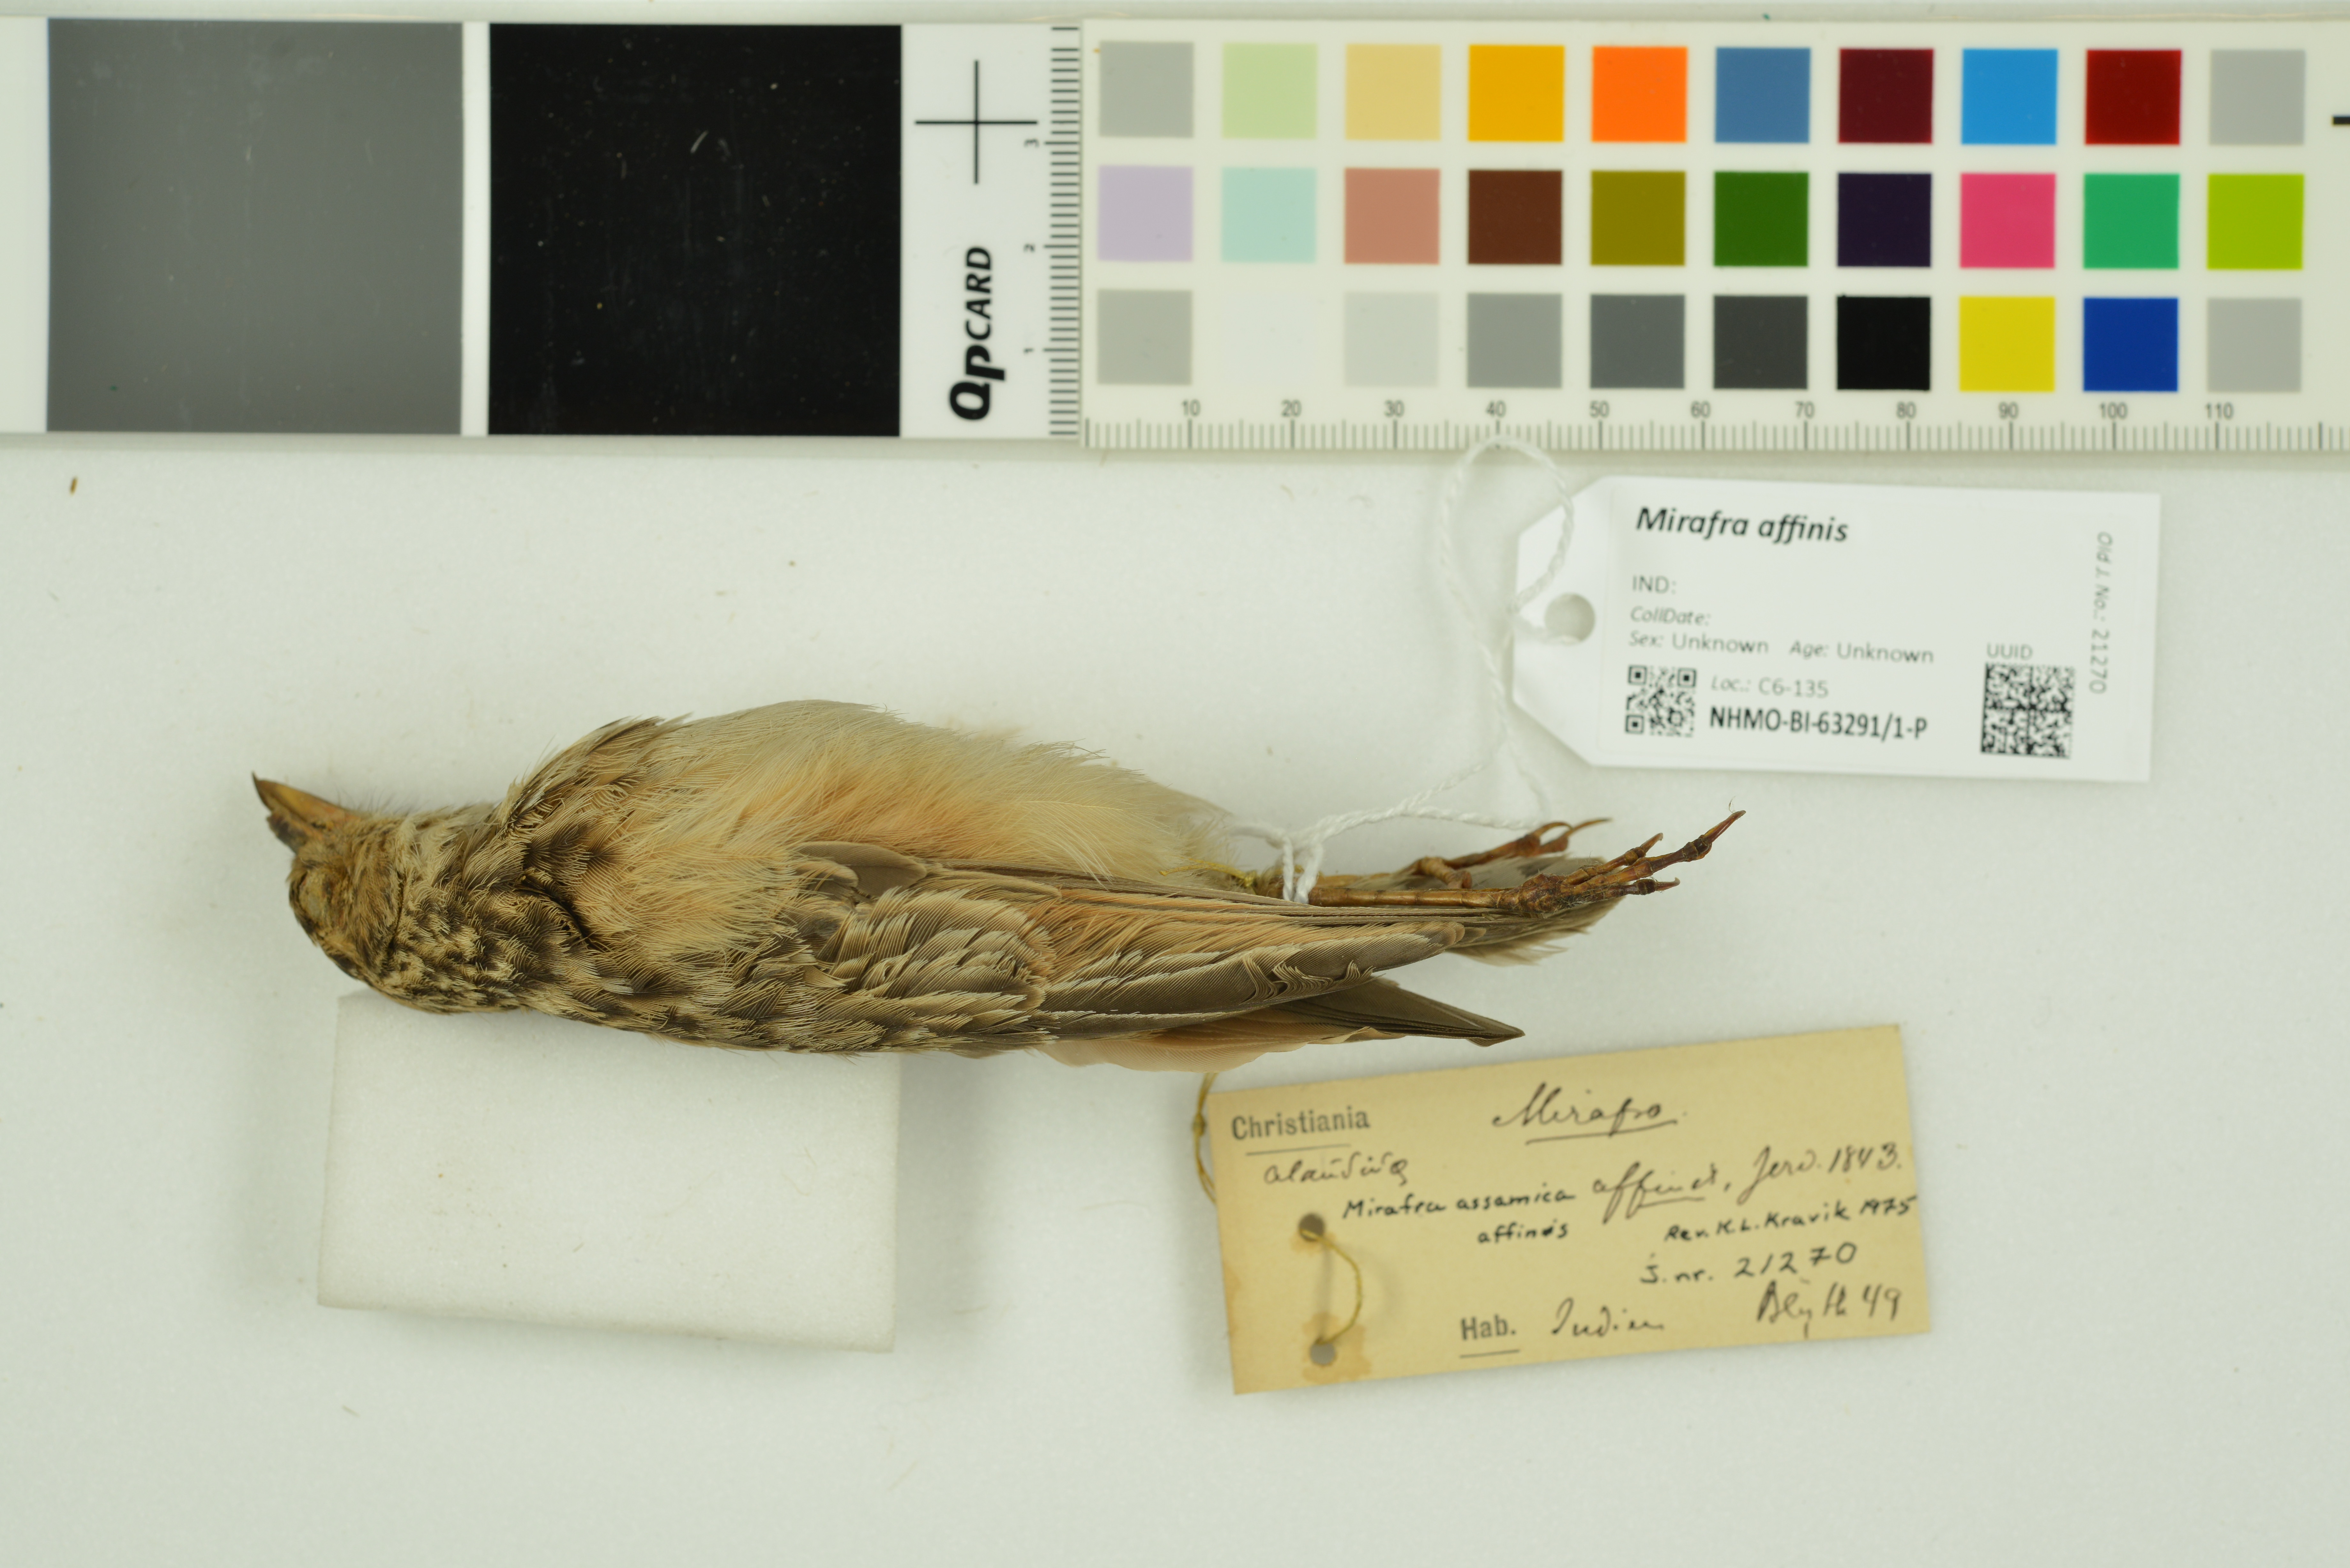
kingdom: Animalia
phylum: Chordata
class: Aves
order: Passeriformes
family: Alaudidae
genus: Mirafra
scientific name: Mirafra affinis
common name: Jerdon's bushlark
